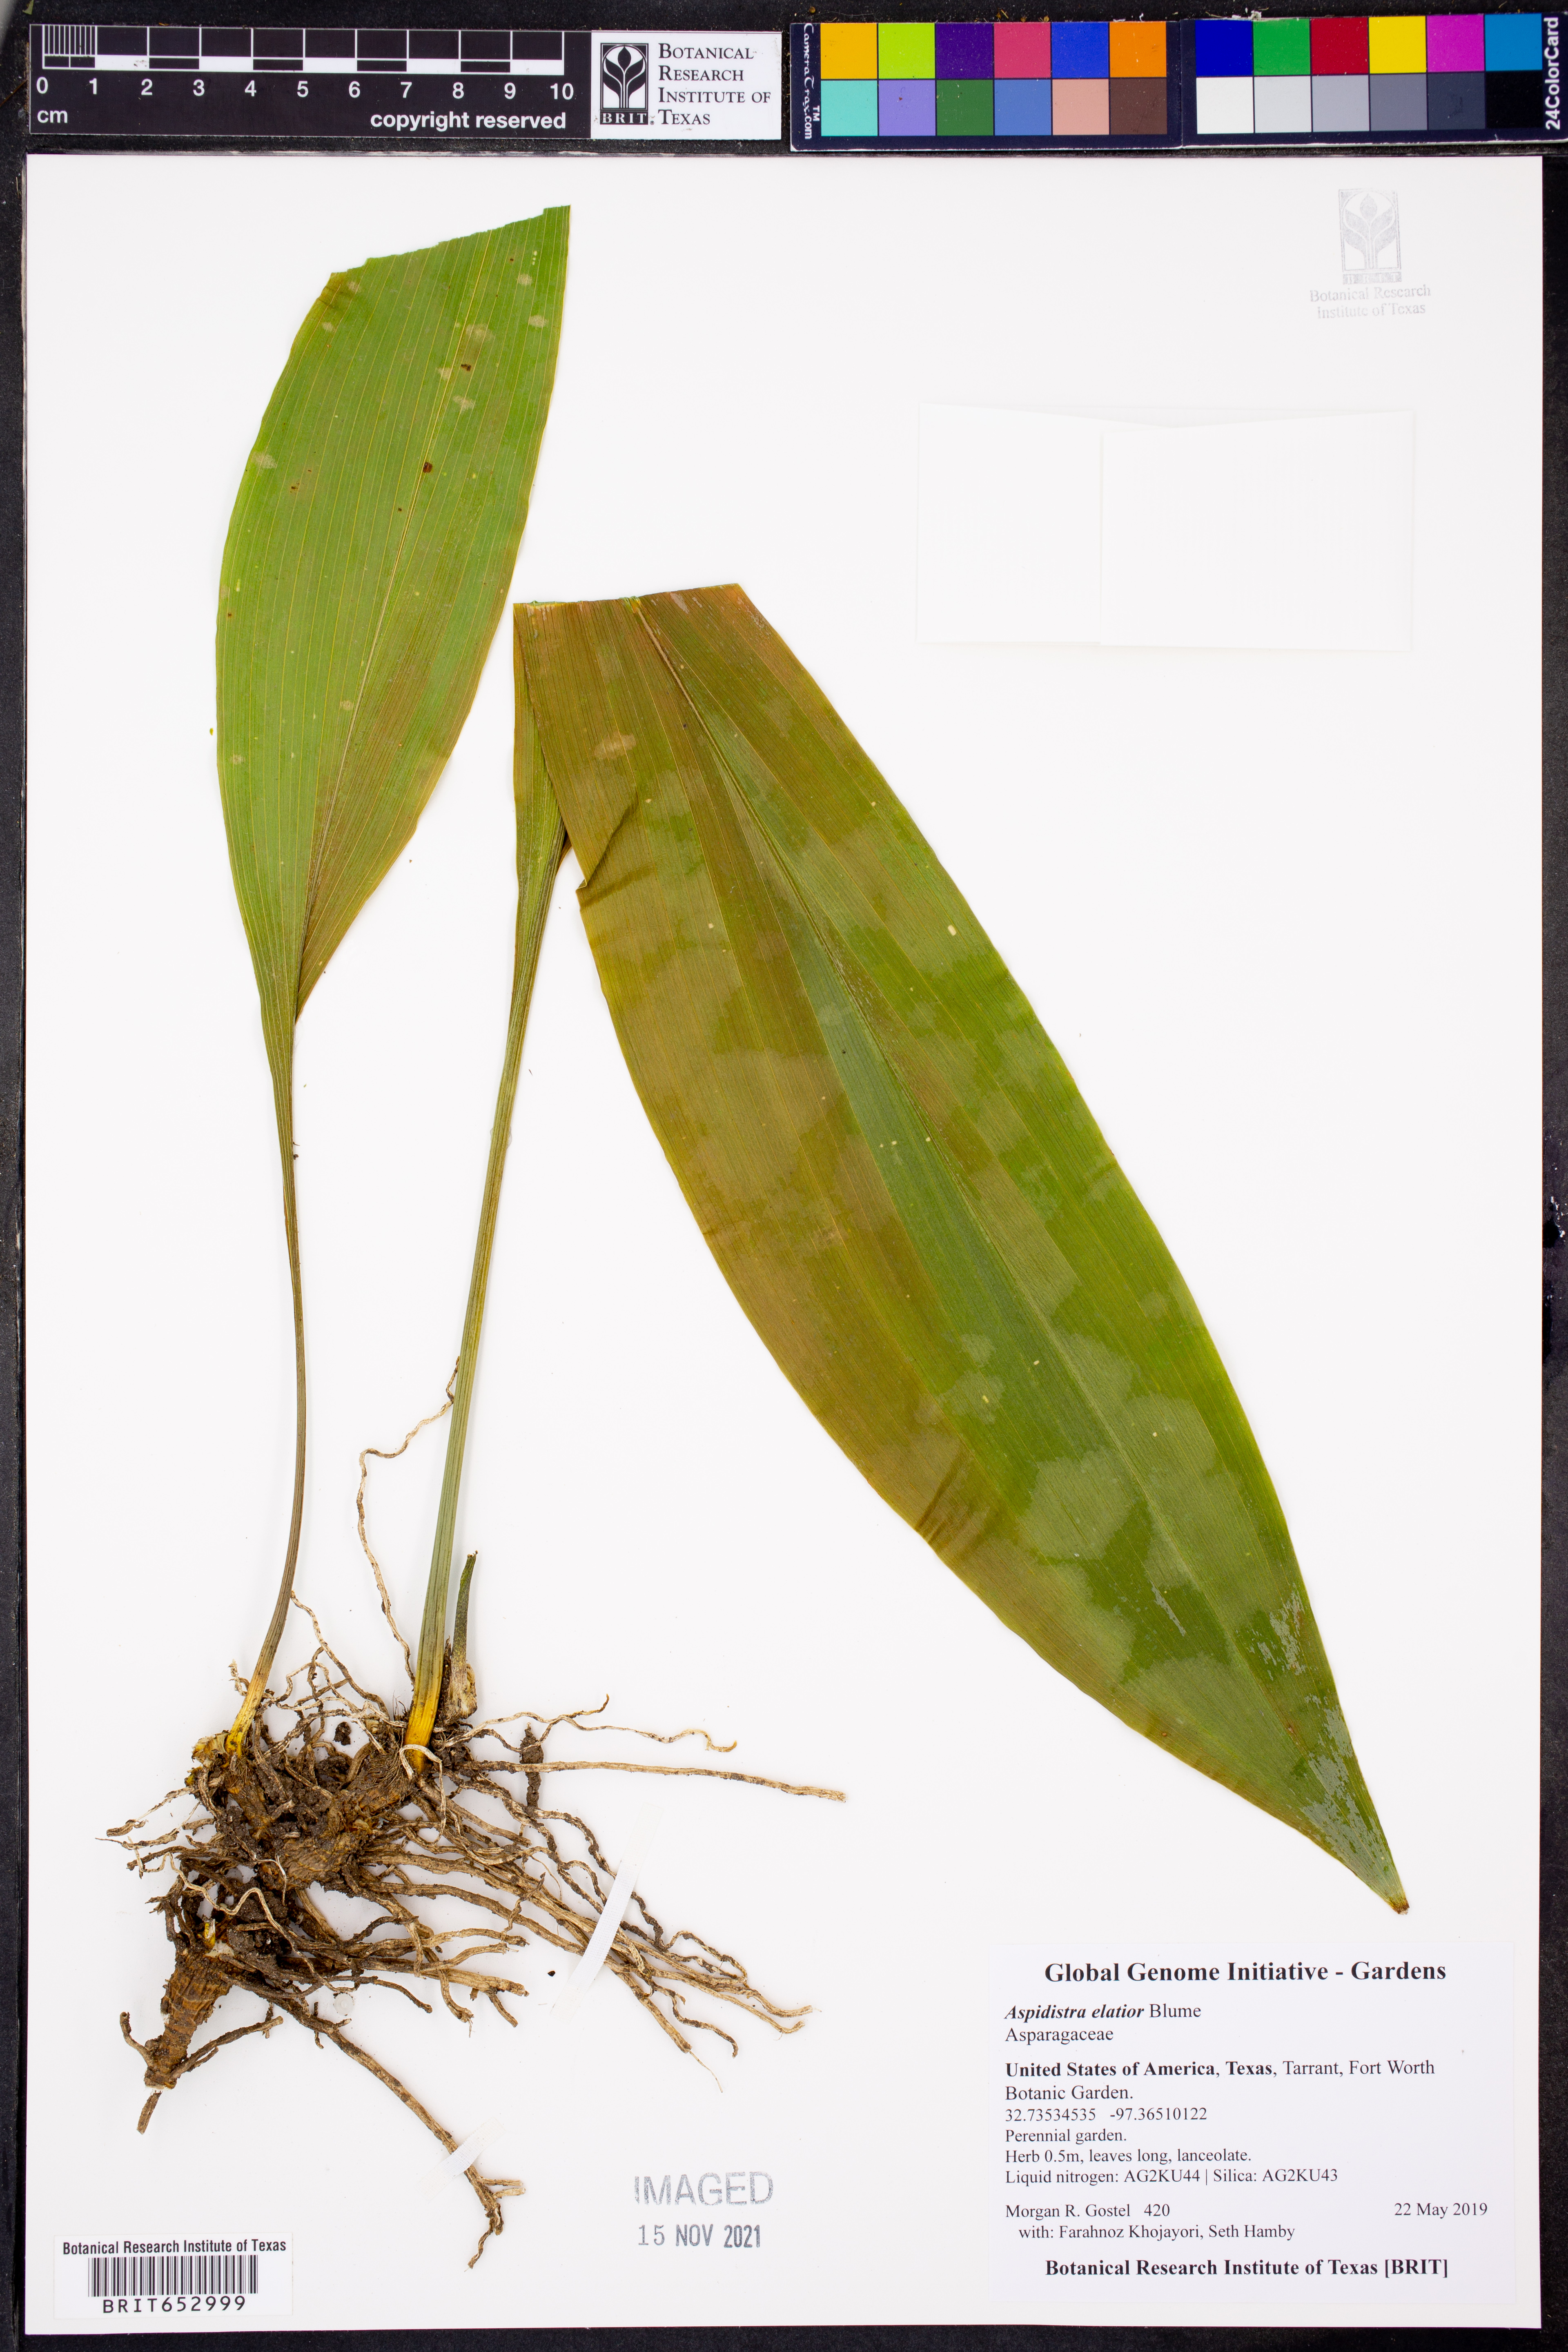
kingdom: Plantae
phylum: Tracheophyta
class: Liliopsida
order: Asparagales
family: Asparagaceae
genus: Aspidistra
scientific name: Aspidistra elatior
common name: Cast-iron-plant
